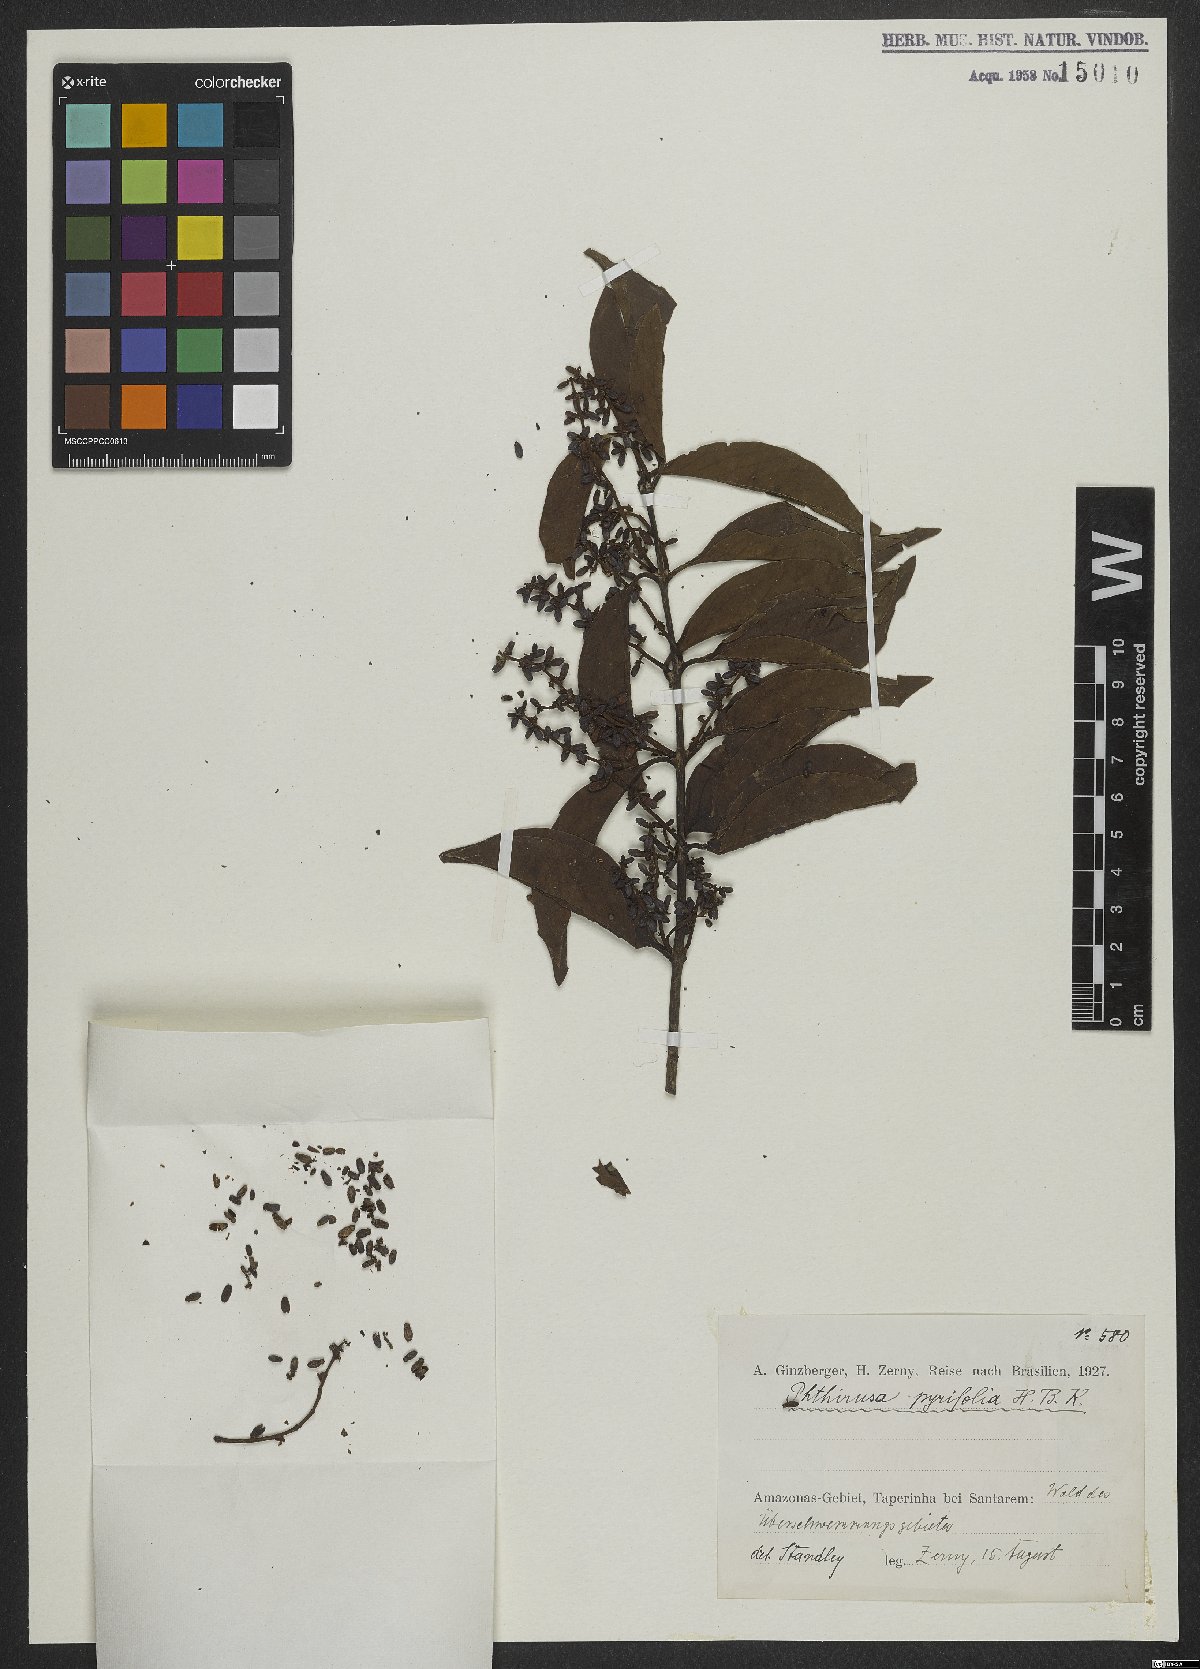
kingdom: Plantae
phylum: Tracheophyta
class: Magnoliopsida
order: Santalales
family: Loranthaceae
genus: Passovia
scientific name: Passovia pyrifolia
